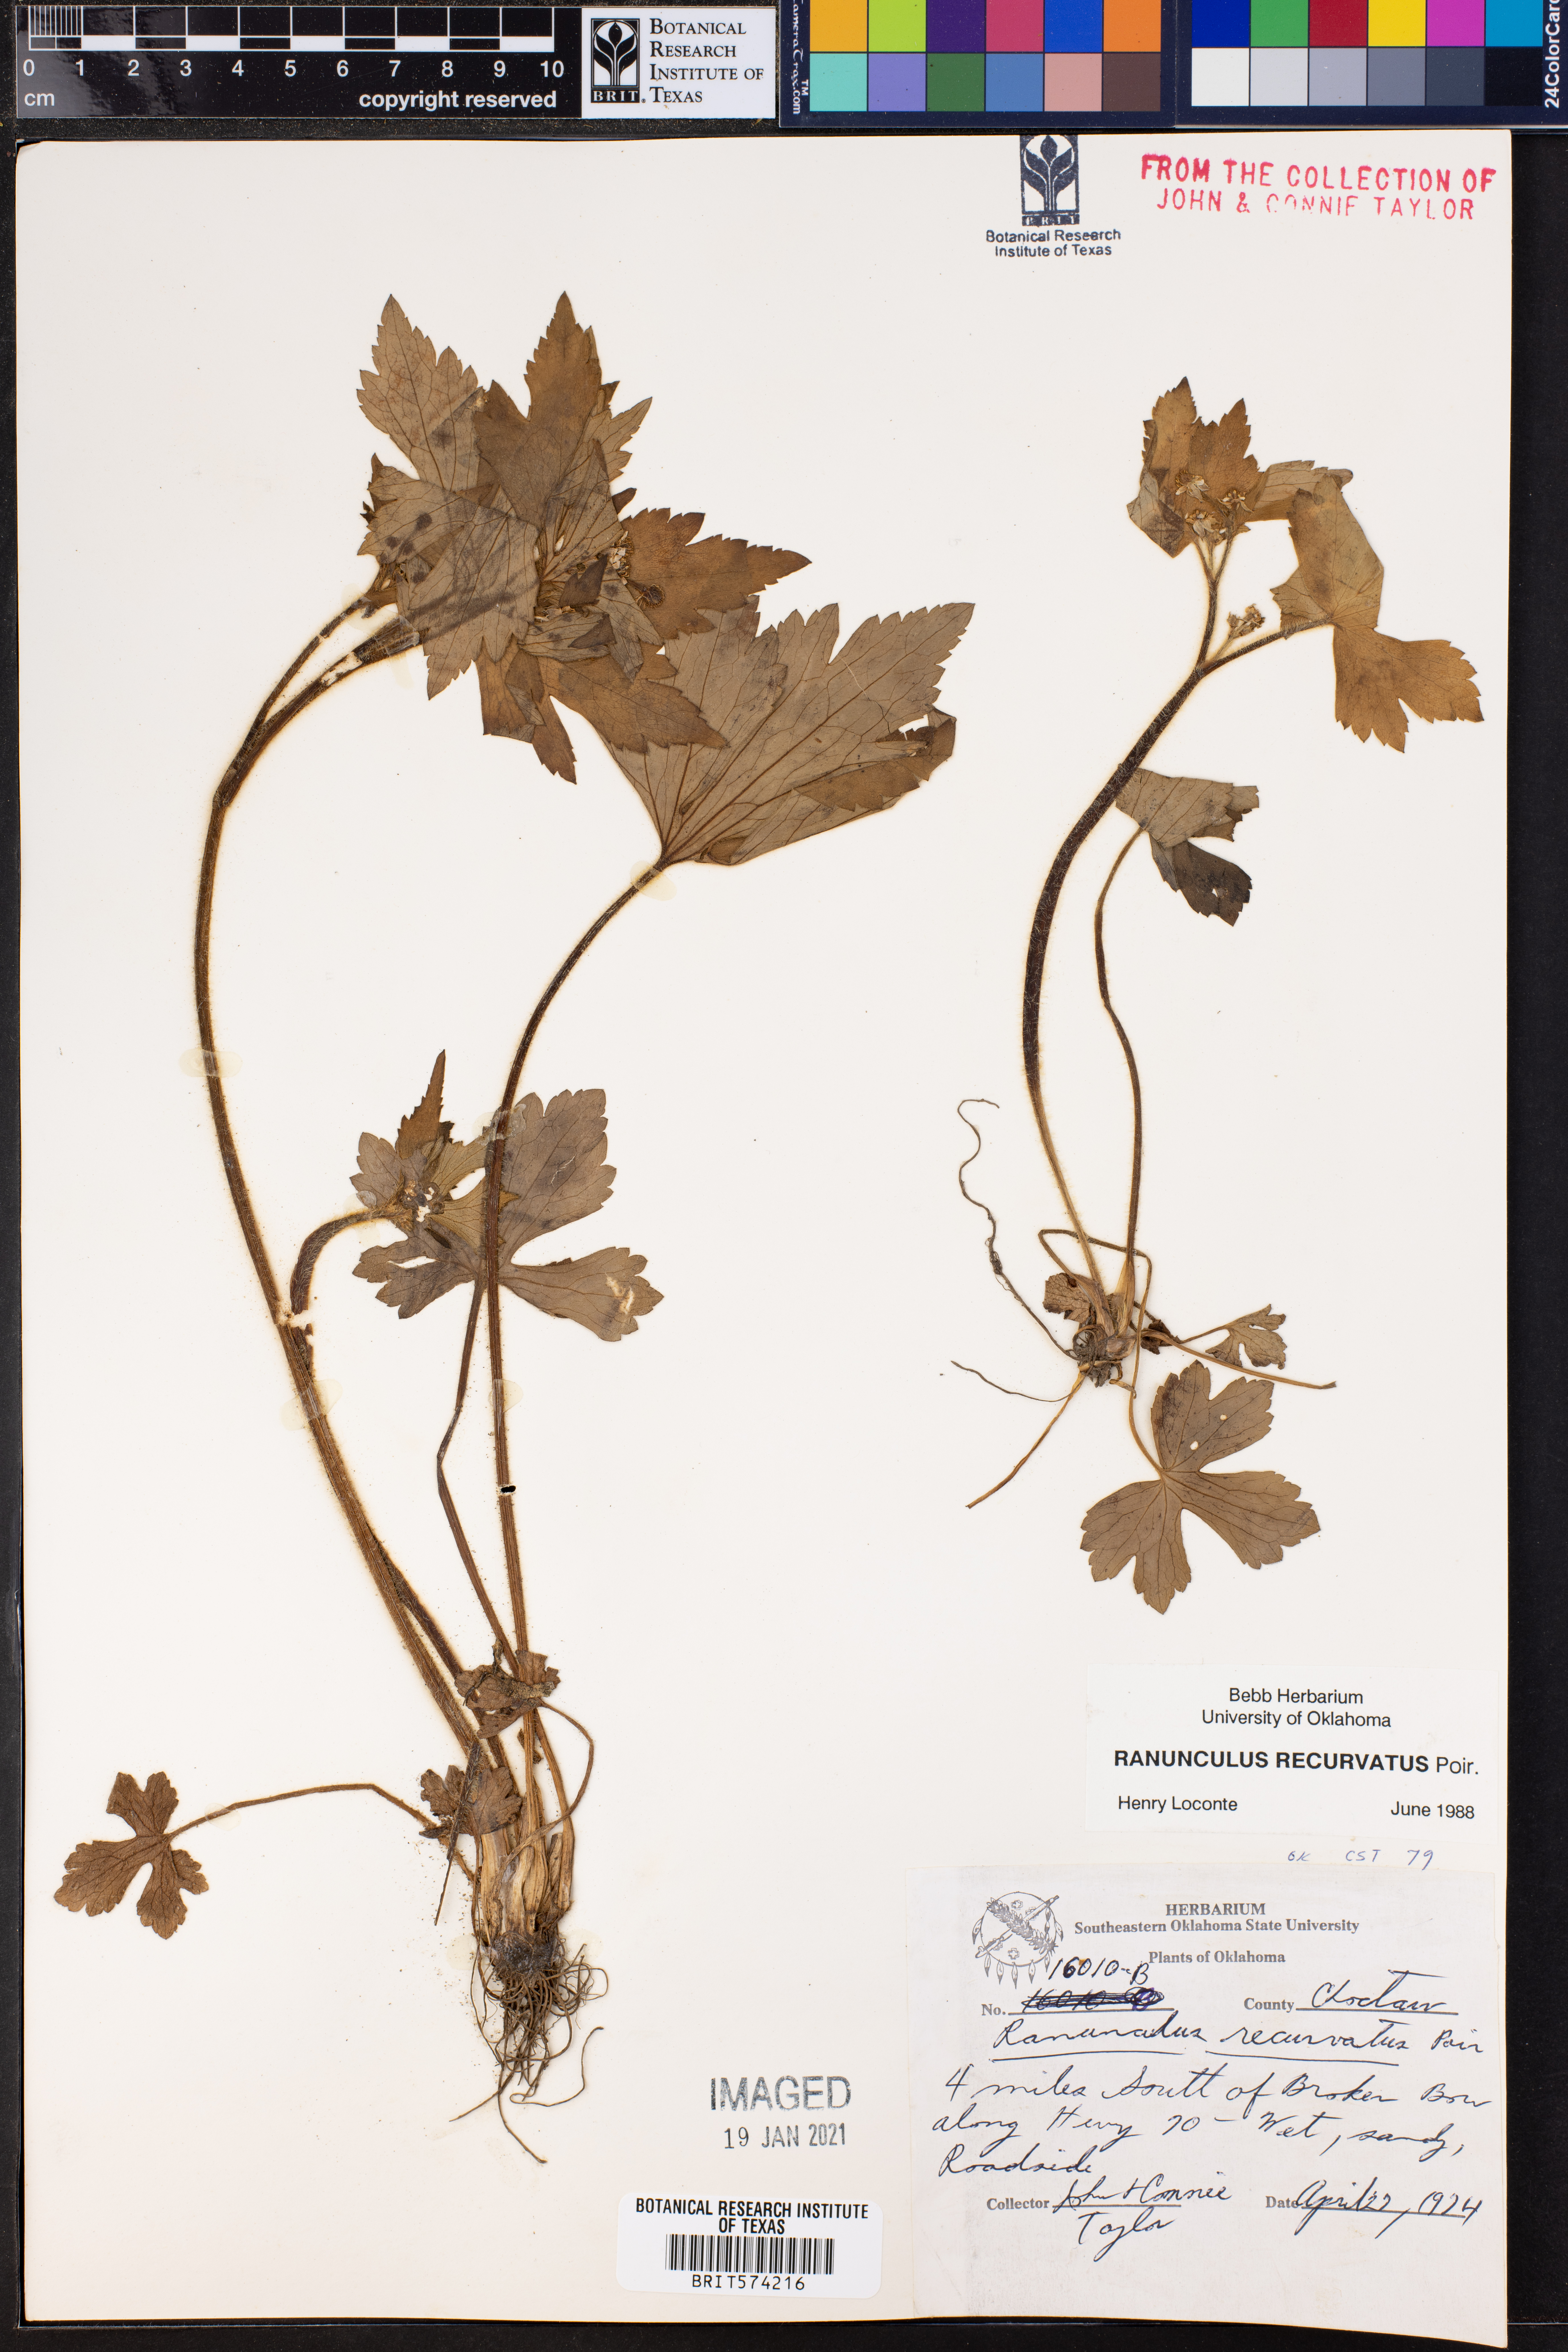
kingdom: Plantae
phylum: Tracheophyta
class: Magnoliopsida
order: Ranunculales
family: Ranunculaceae
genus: Ranunculus
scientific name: Ranunculus recurvatus
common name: Blisterwort
